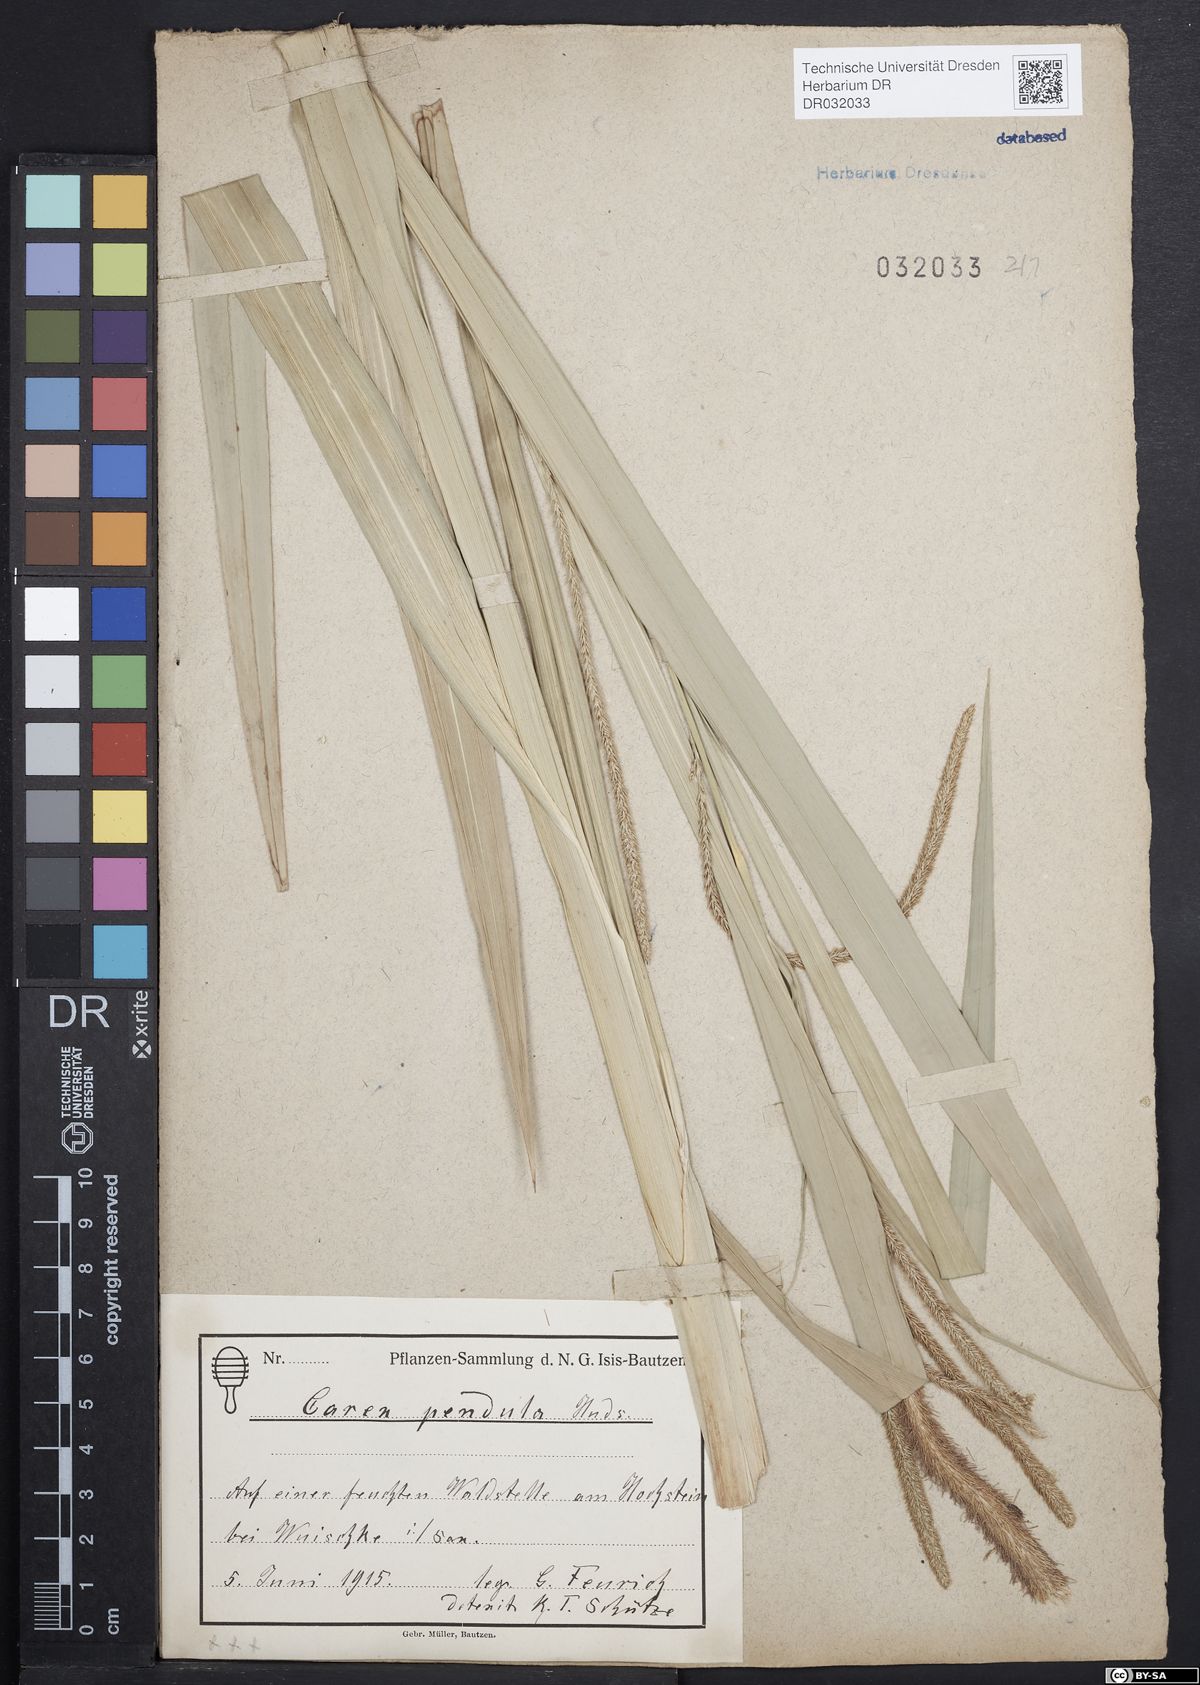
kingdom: Plantae
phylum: Tracheophyta
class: Liliopsida
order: Poales
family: Cyperaceae
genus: Carex
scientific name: Carex pendula
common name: Pendulous sedge
